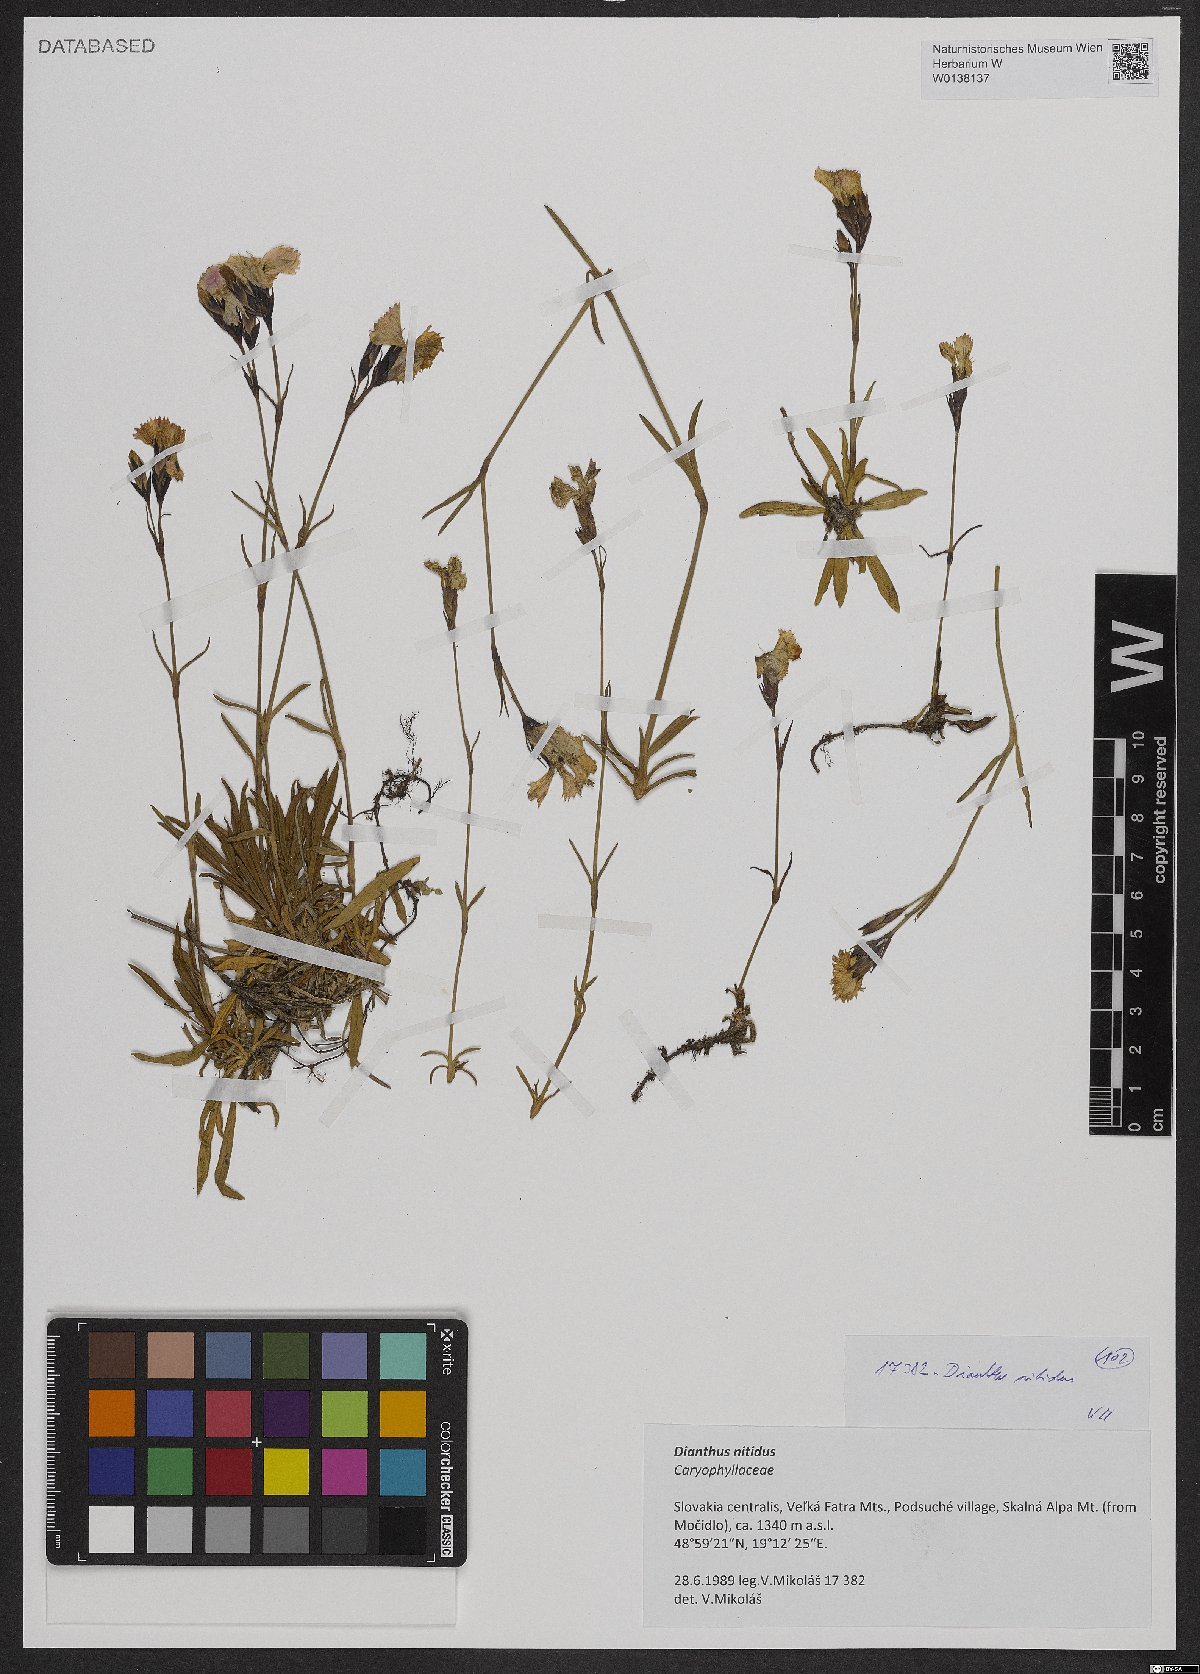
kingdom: Plantae
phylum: Tracheophyta
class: Magnoliopsida
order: Caryophyllales
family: Caryophyllaceae
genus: Dianthus
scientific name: Dianthus nitidus
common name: Carpathian glossy pink
